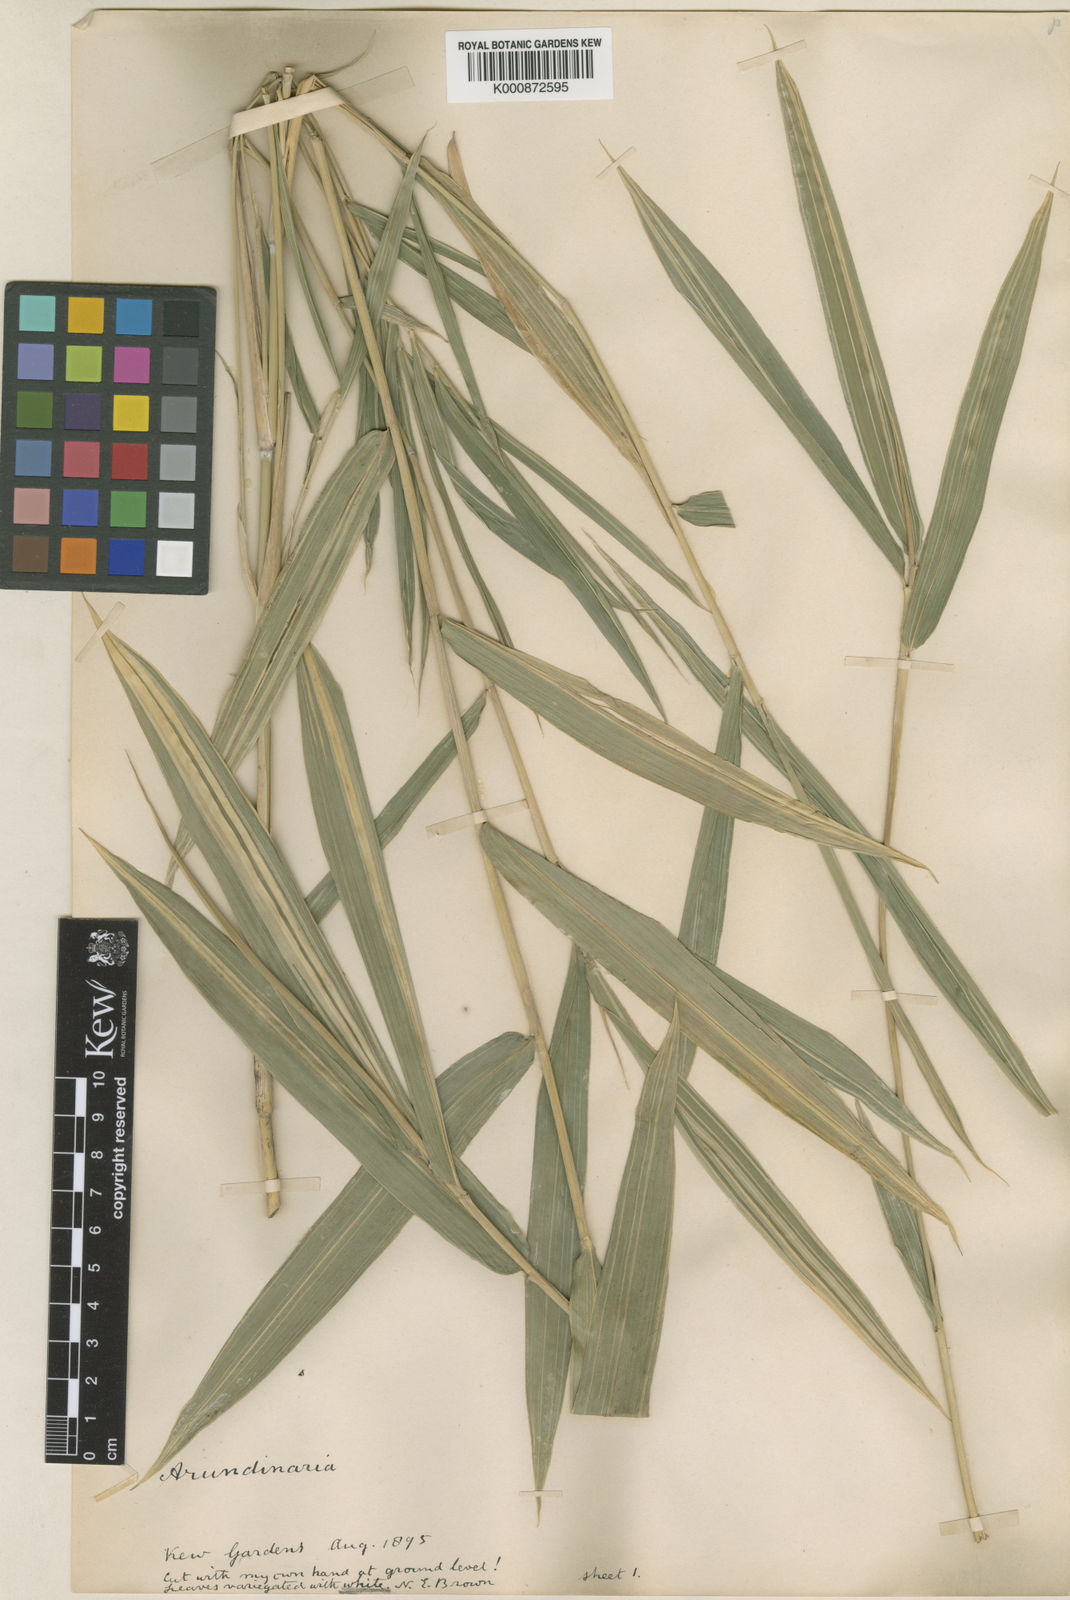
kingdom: Plantae
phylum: Tracheophyta
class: Liliopsida
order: Poales
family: Poaceae
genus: Pleioblastus
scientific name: Pleioblastus viridistriatus
